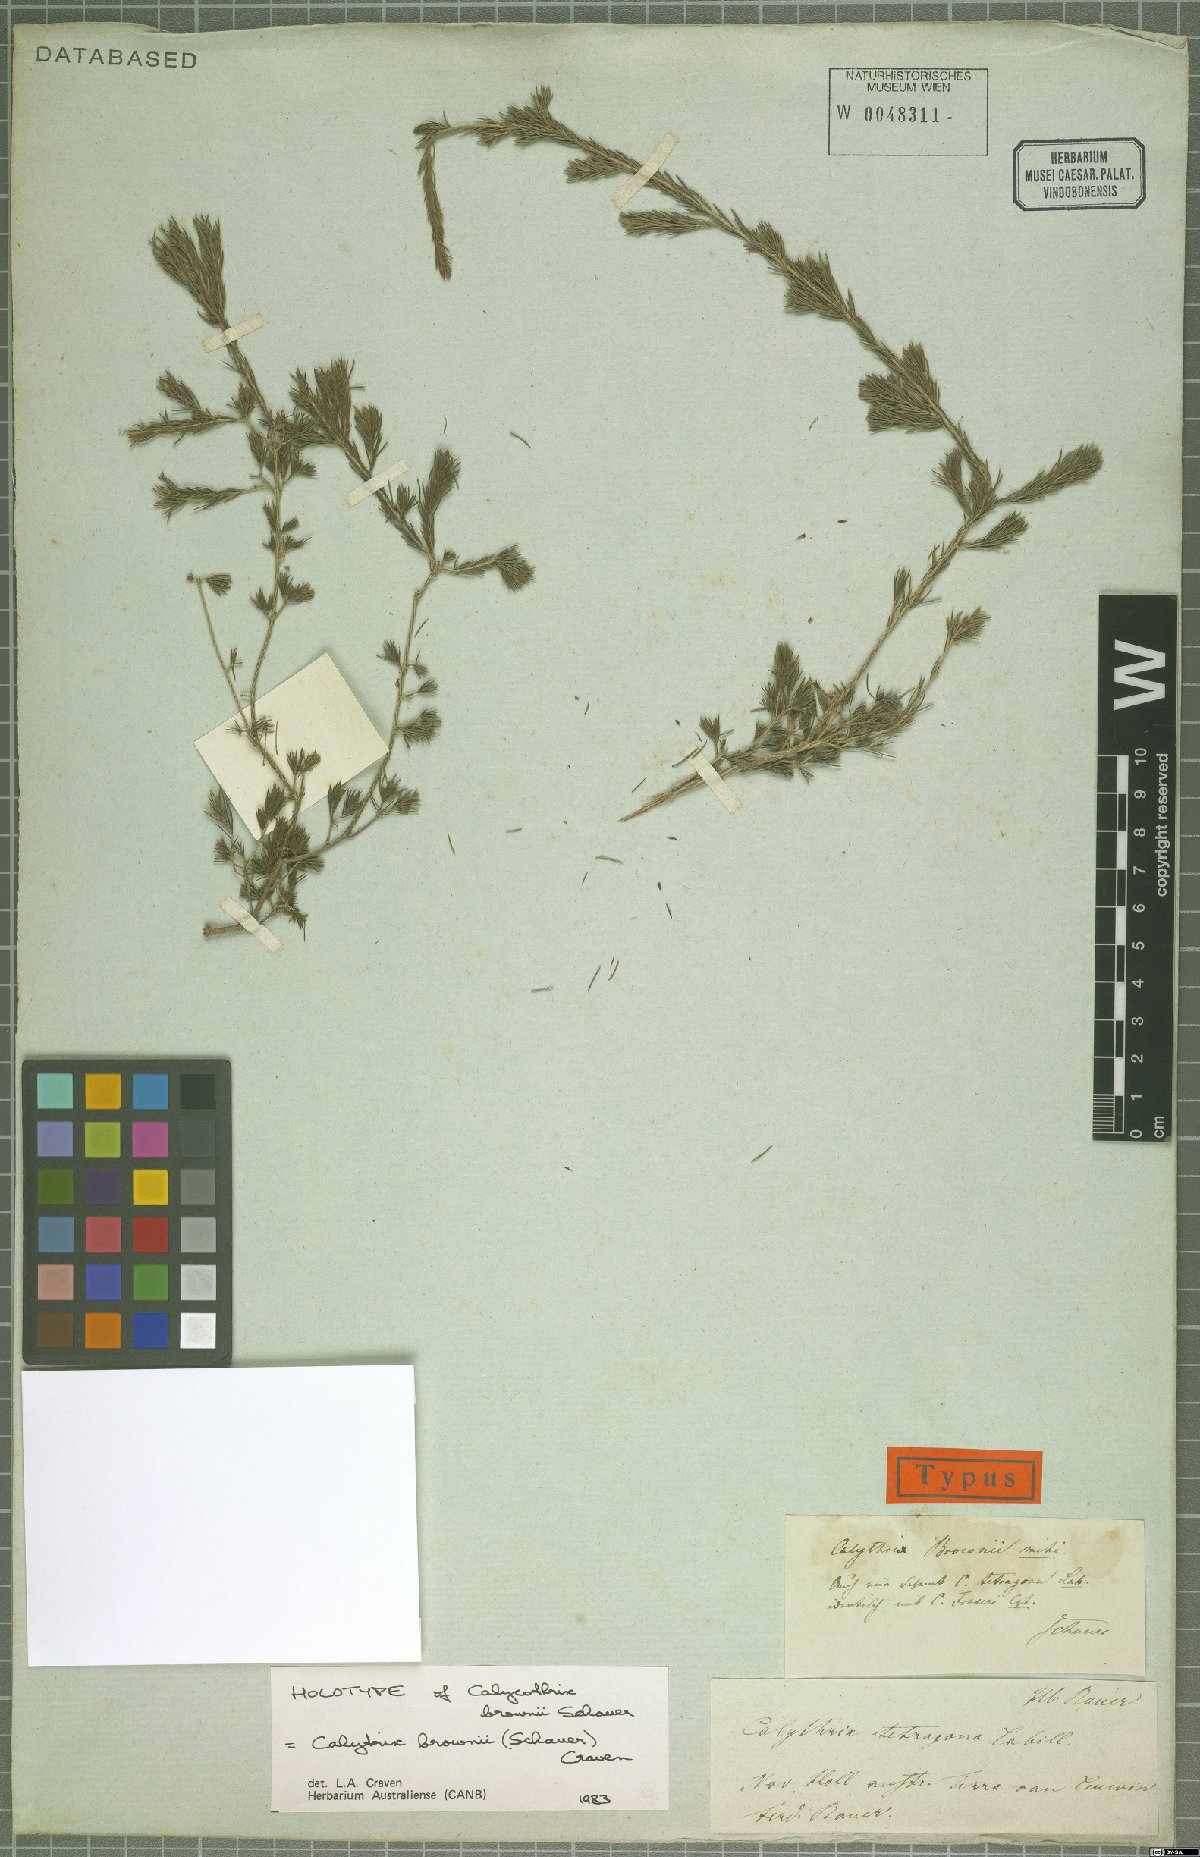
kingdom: Plantae
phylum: Tracheophyta
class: Magnoliopsida
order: Myrtales
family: Myrtaceae
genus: Calytrix
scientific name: Calytrix brownii
